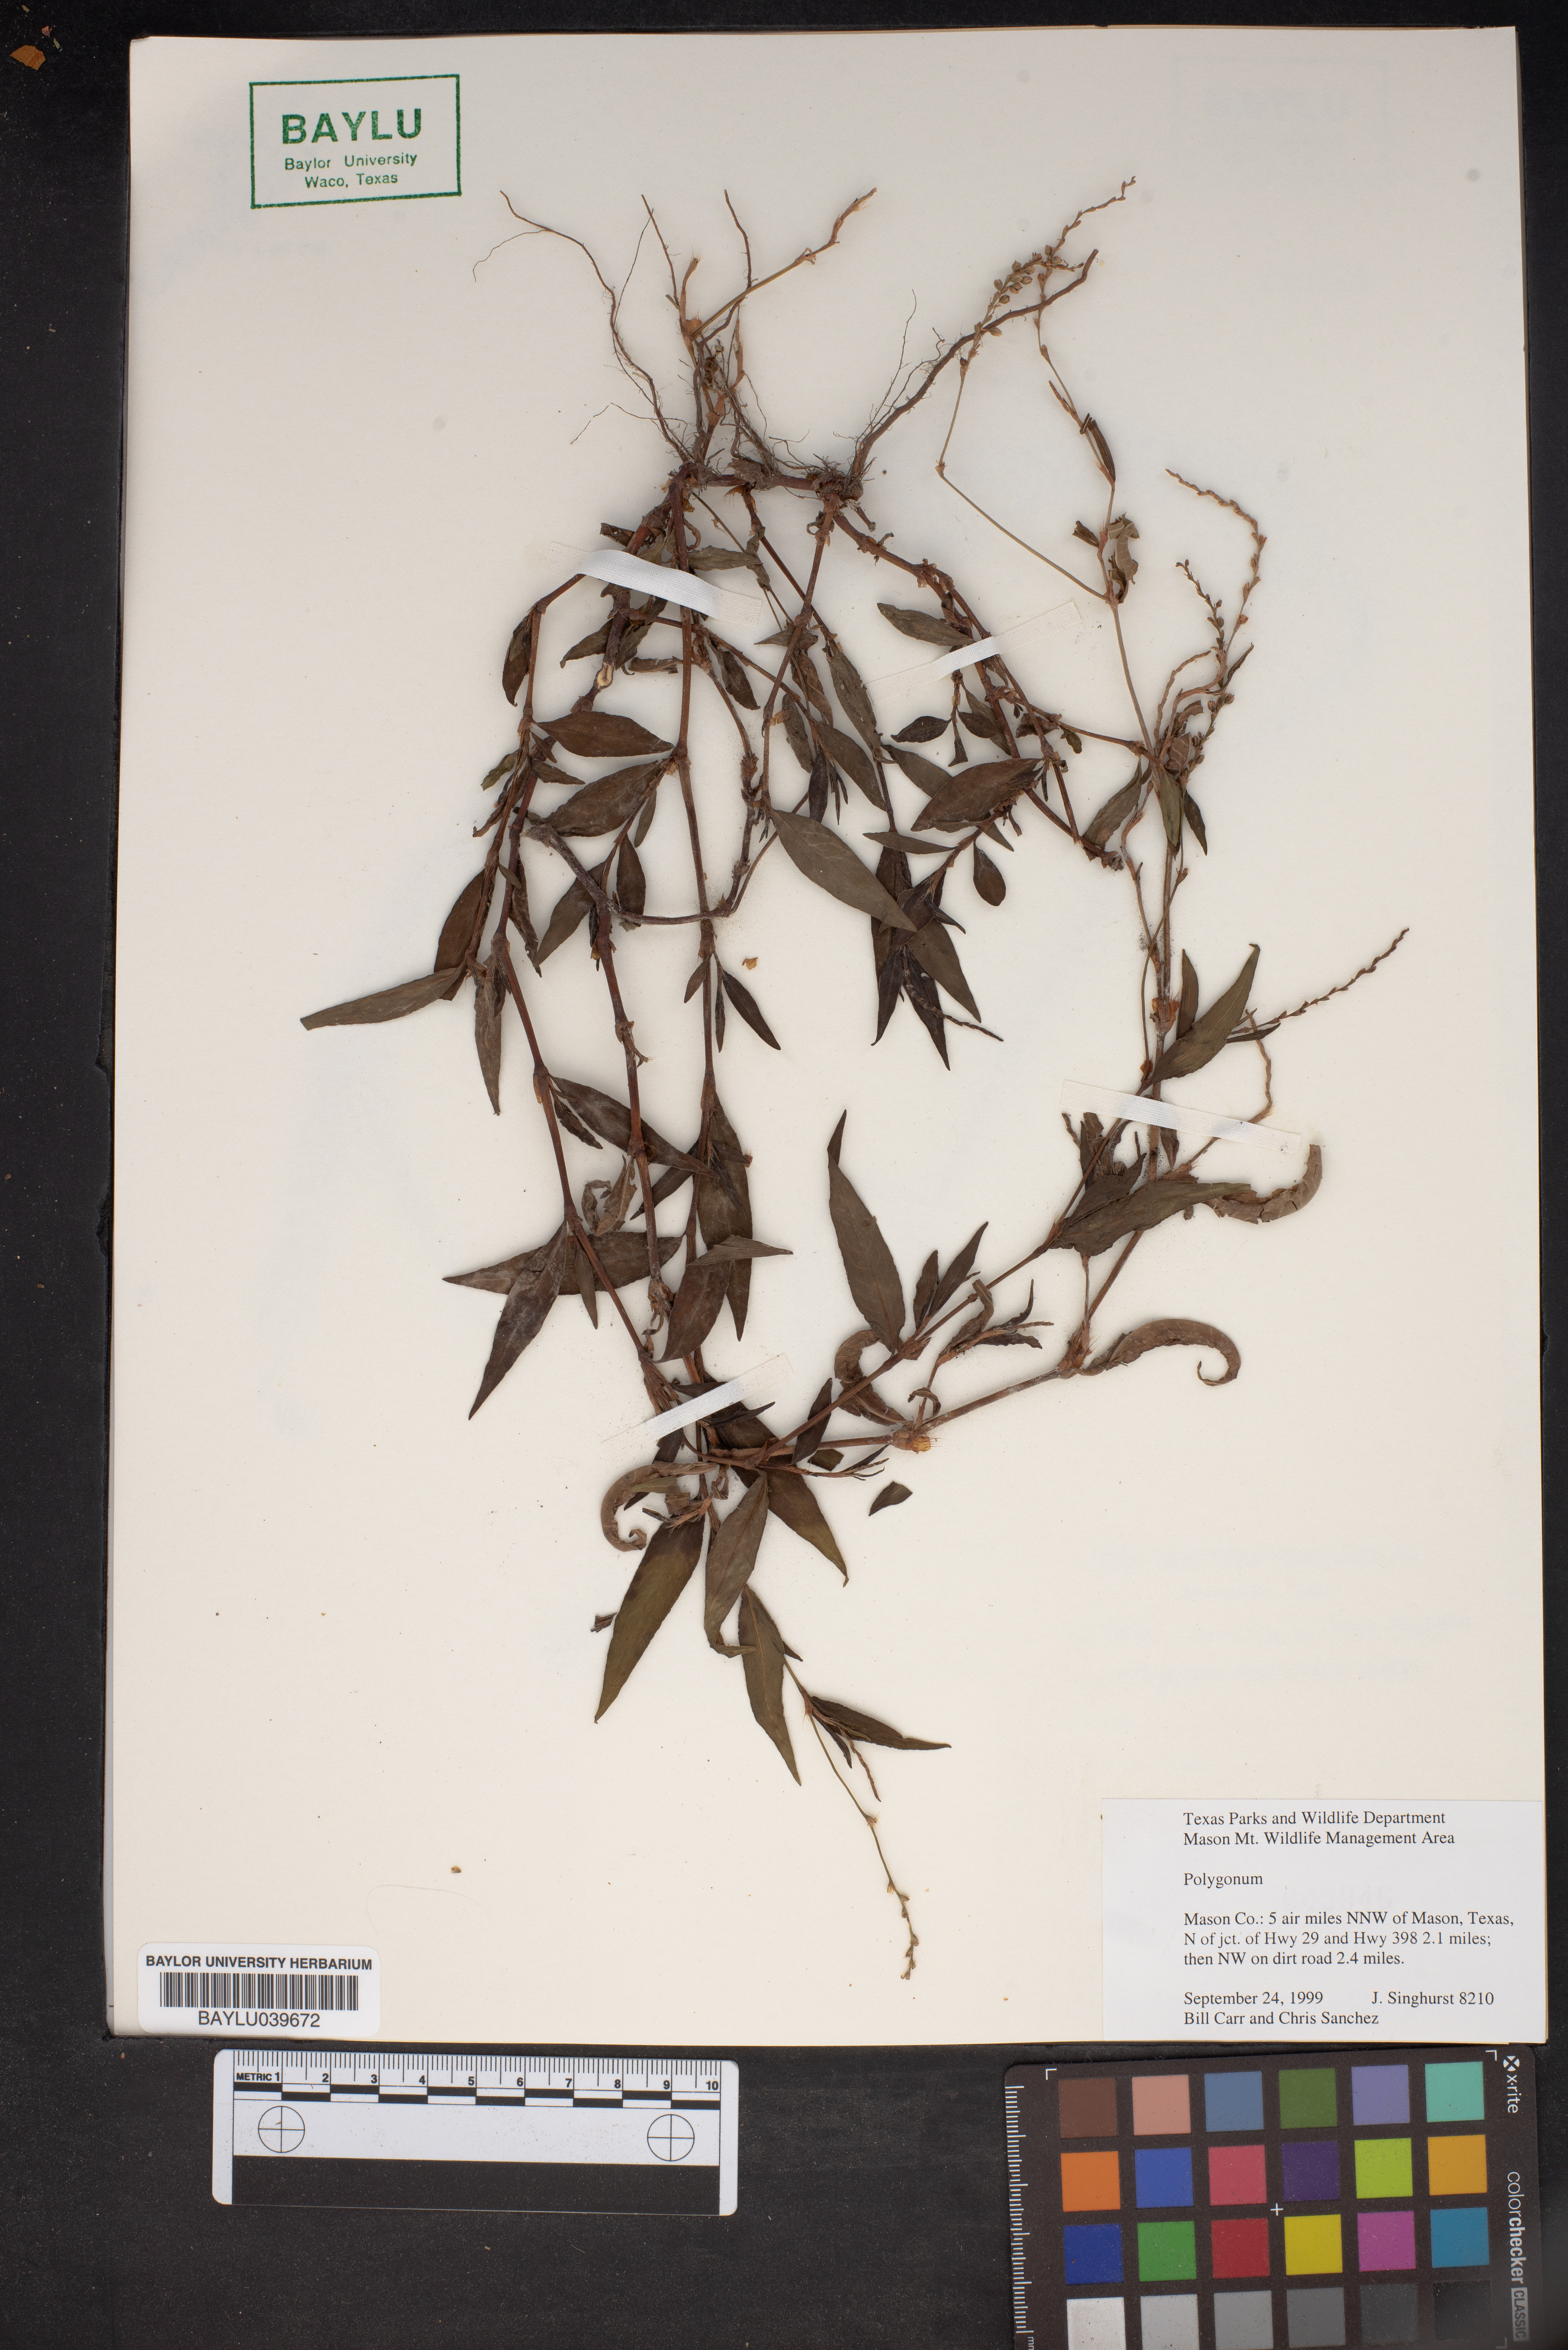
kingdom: Plantae
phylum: Tracheophyta
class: Magnoliopsida
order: Caryophyllales
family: Polygonaceae
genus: Polygonum
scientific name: Polygonum
